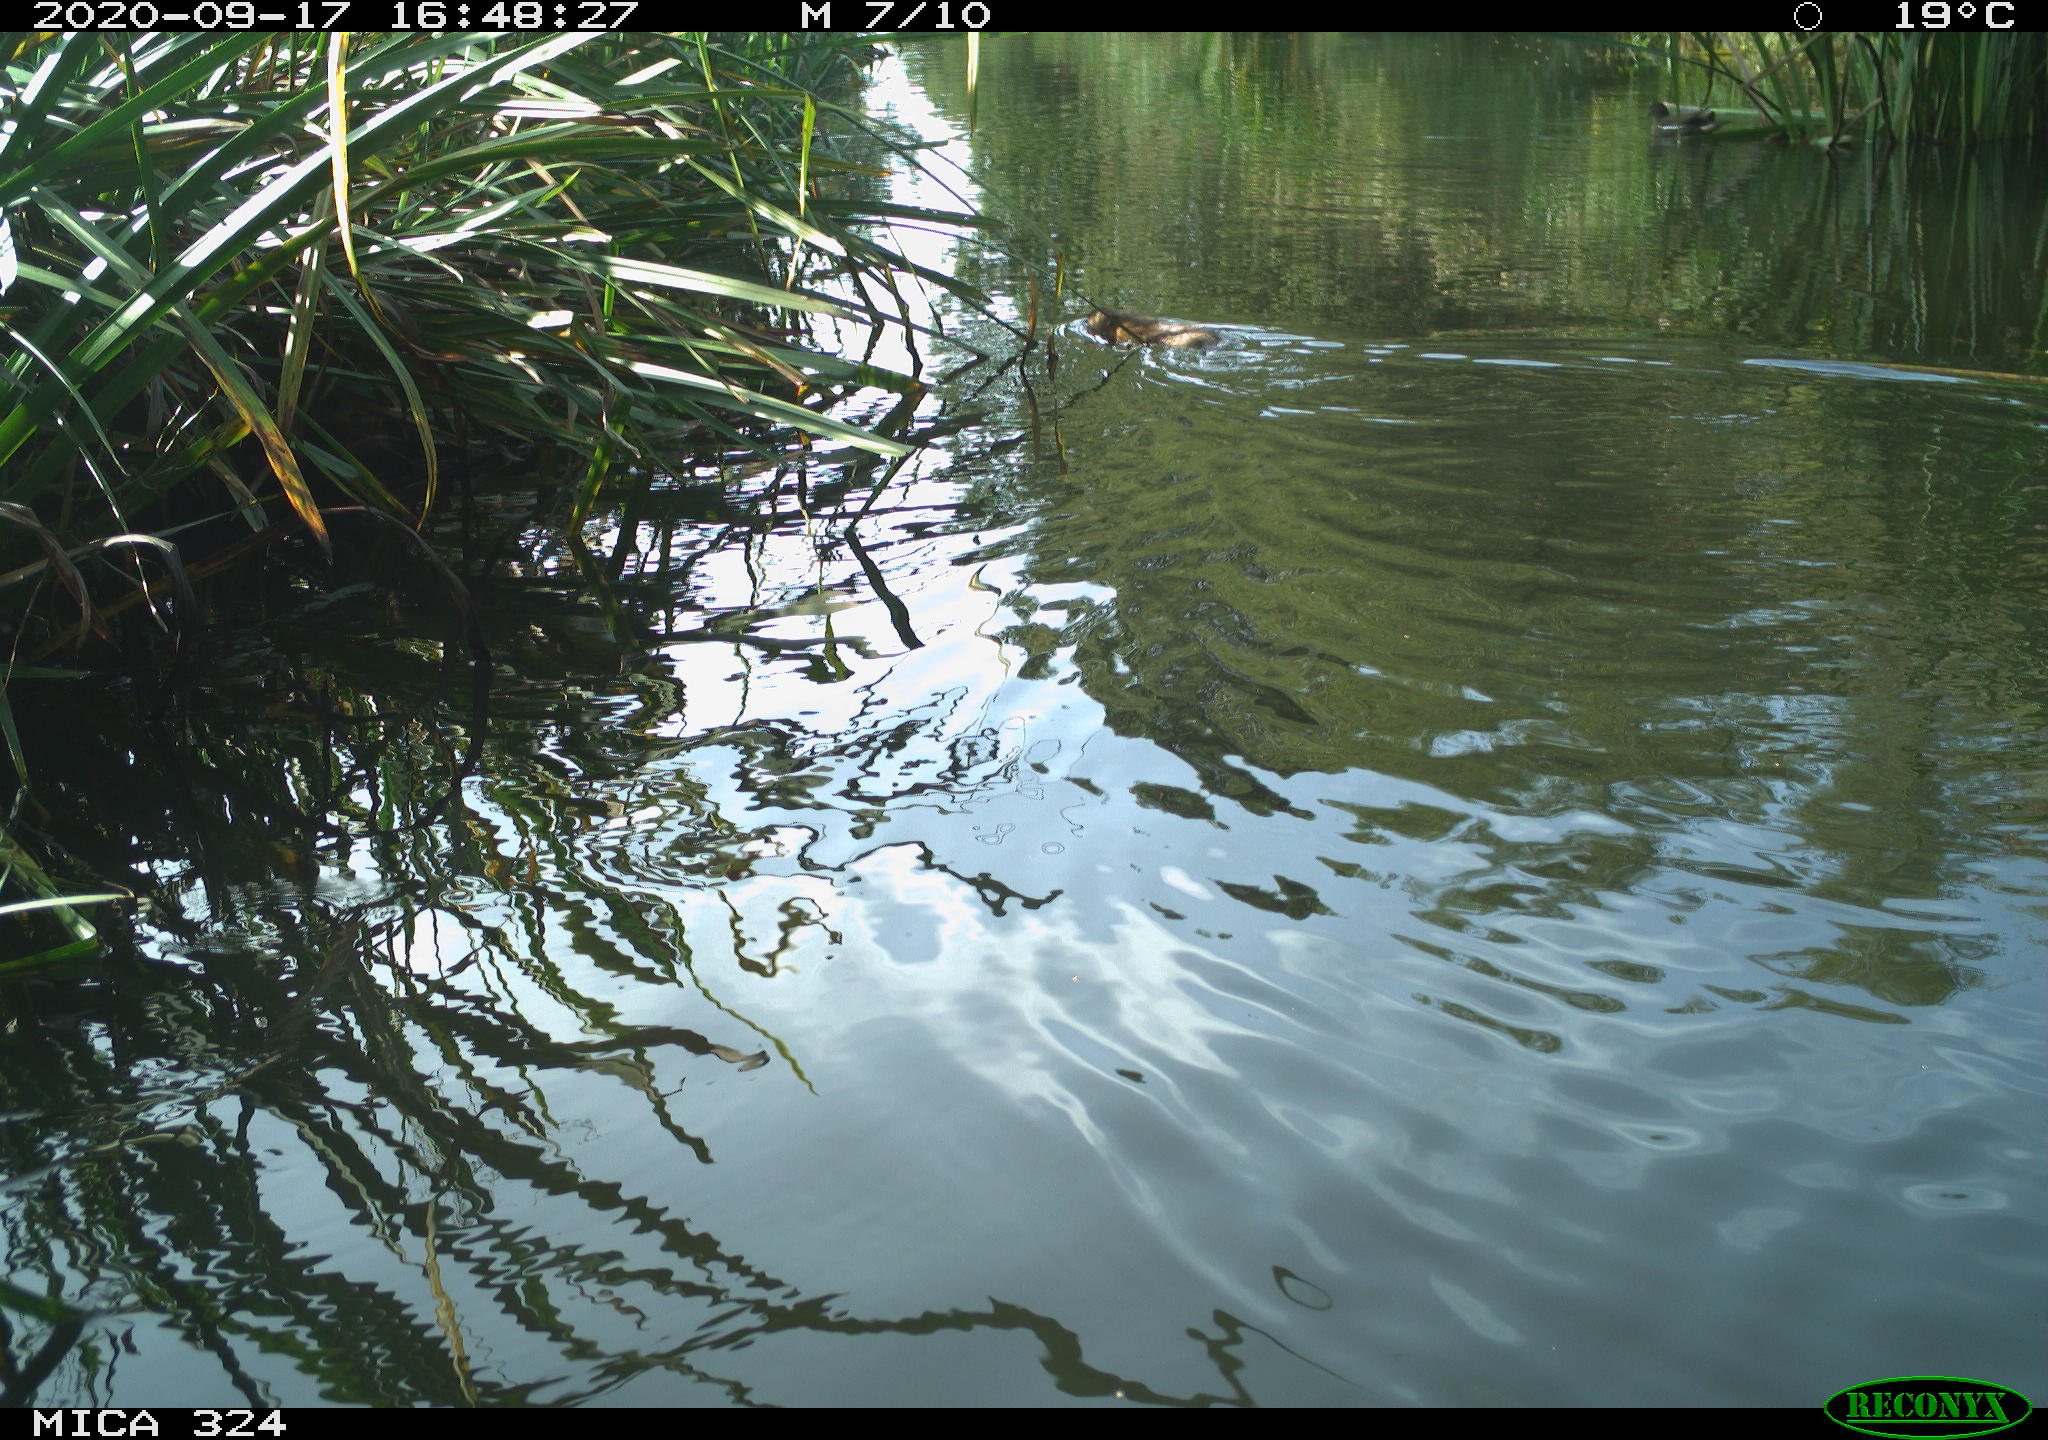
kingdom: Animalia
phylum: Chordata
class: Aves
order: Gruiformes
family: Rallidae
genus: Gallinula
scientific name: Gallinula chloropus
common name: Common moorhen
